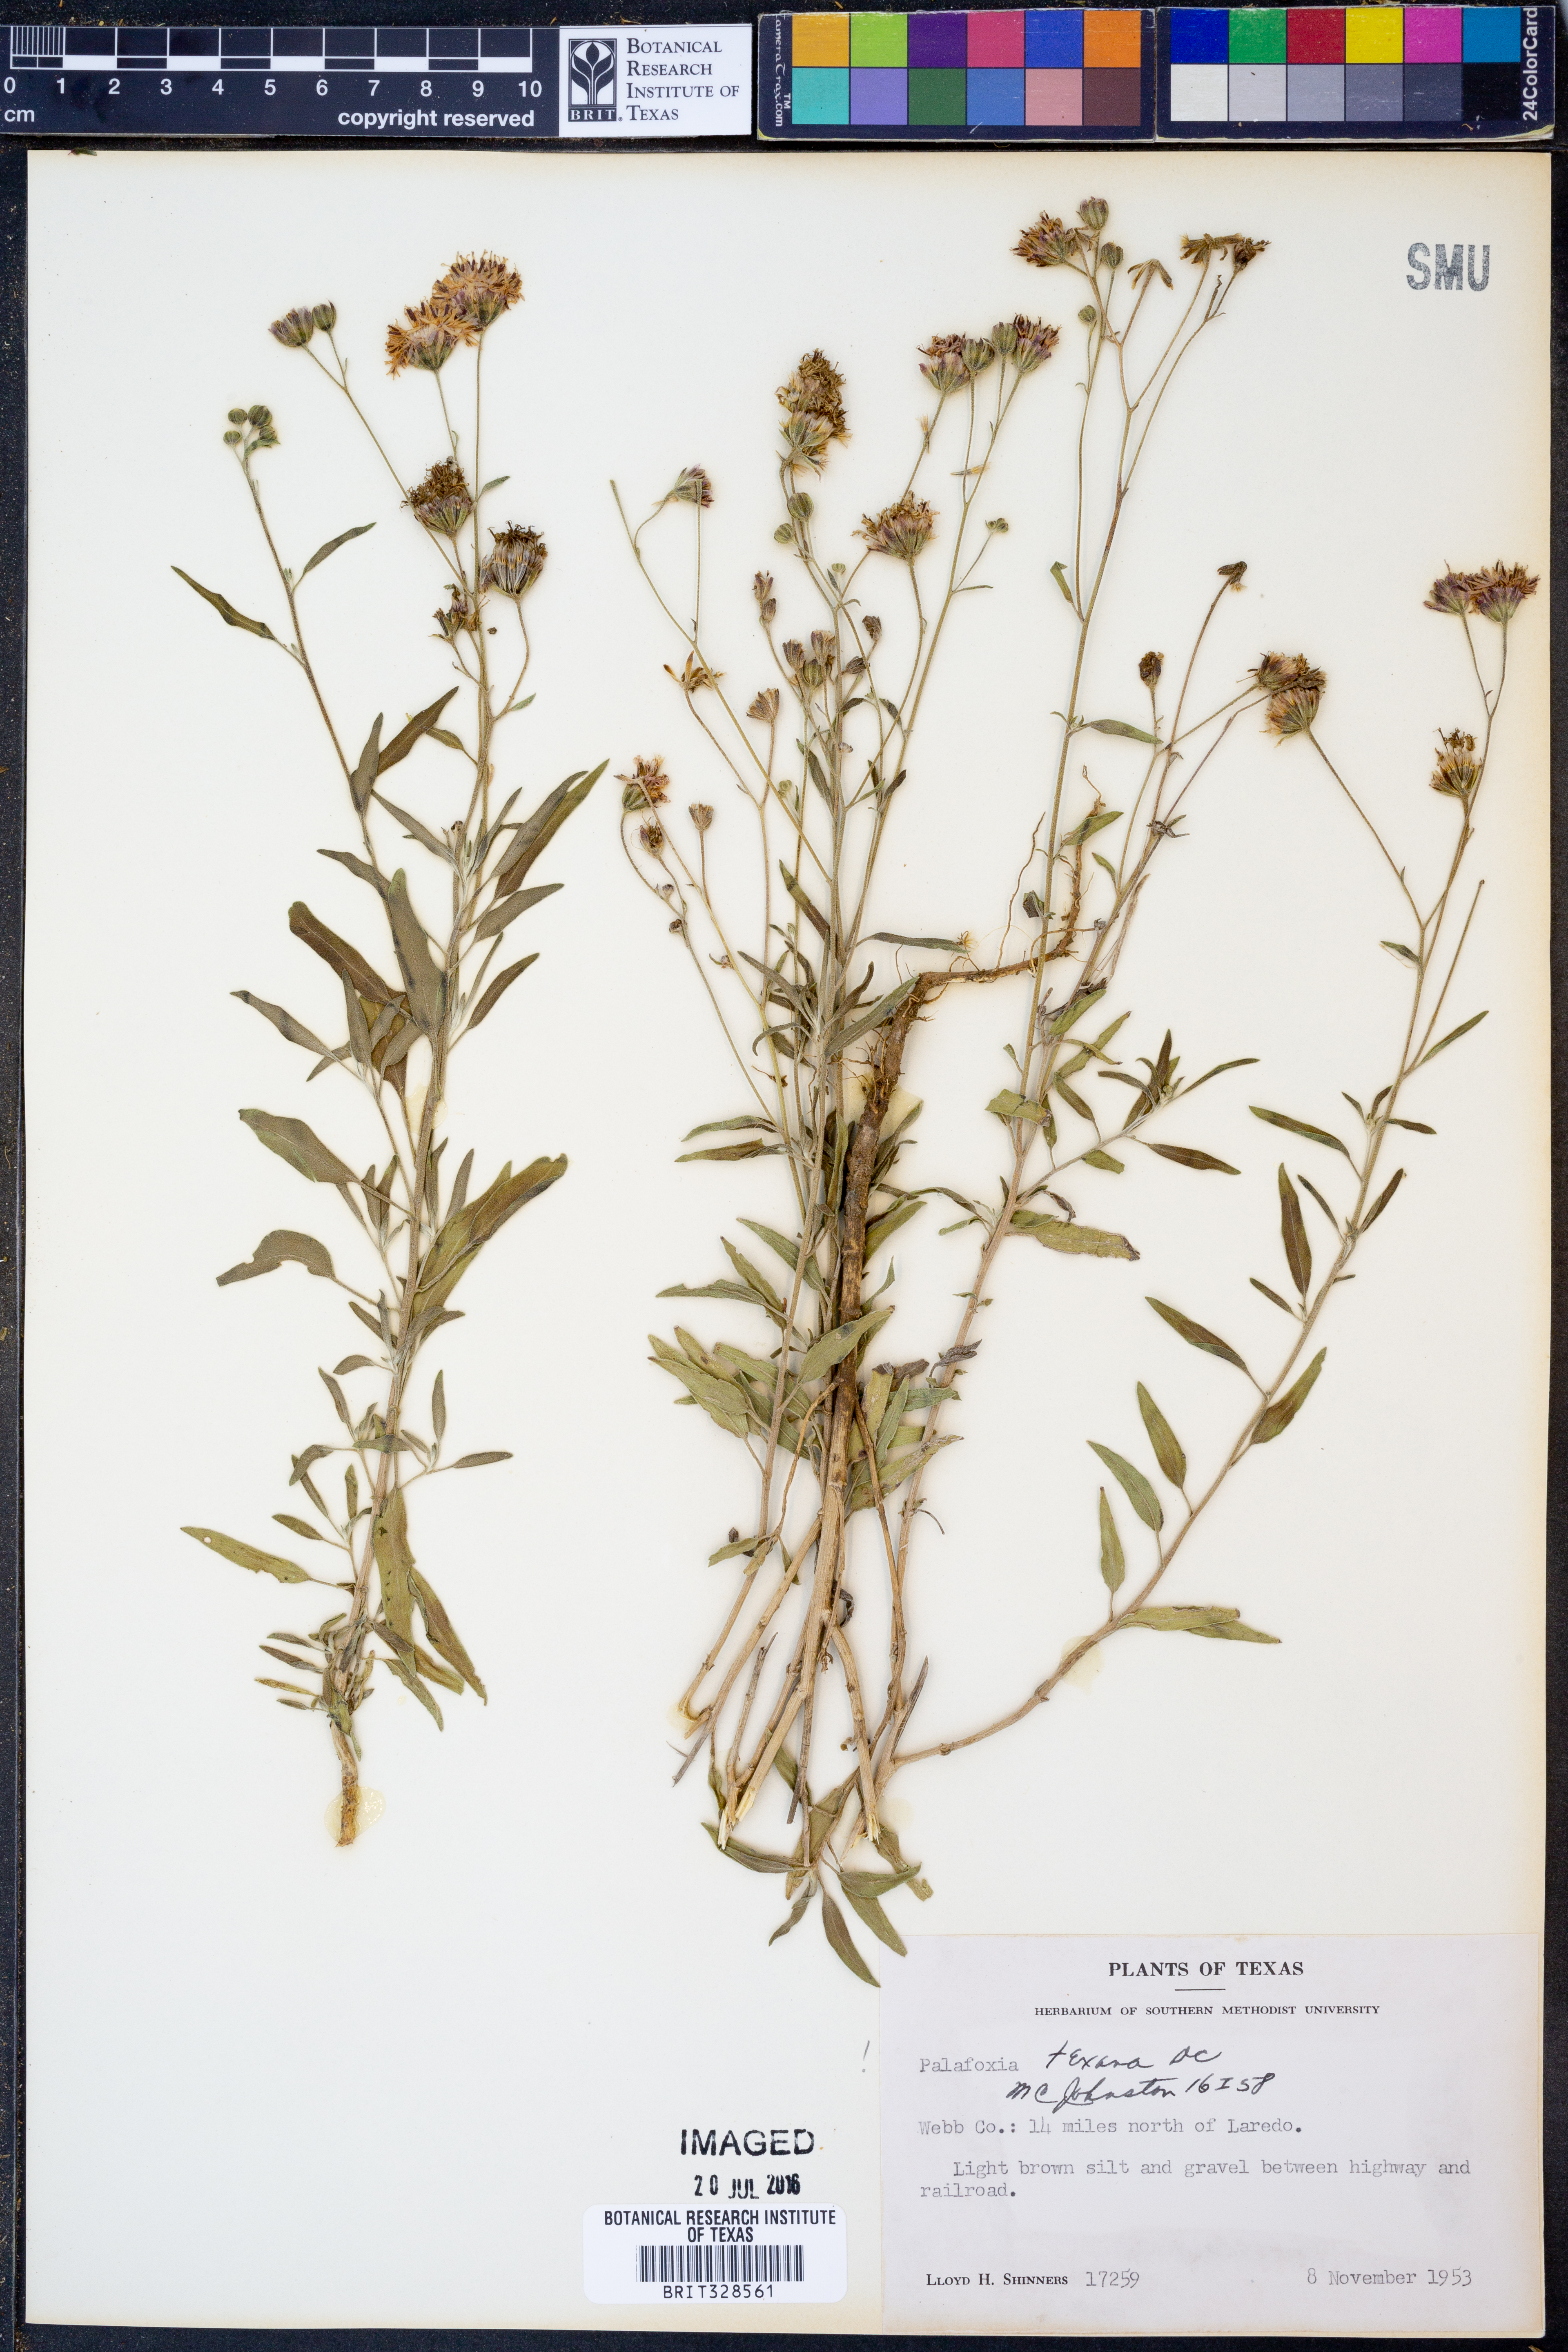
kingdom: Plantae
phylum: Tracheophyta
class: Magnoliopsida
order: Asterales
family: Asteraceae
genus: Palafoxia
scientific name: Palafoxia texana
